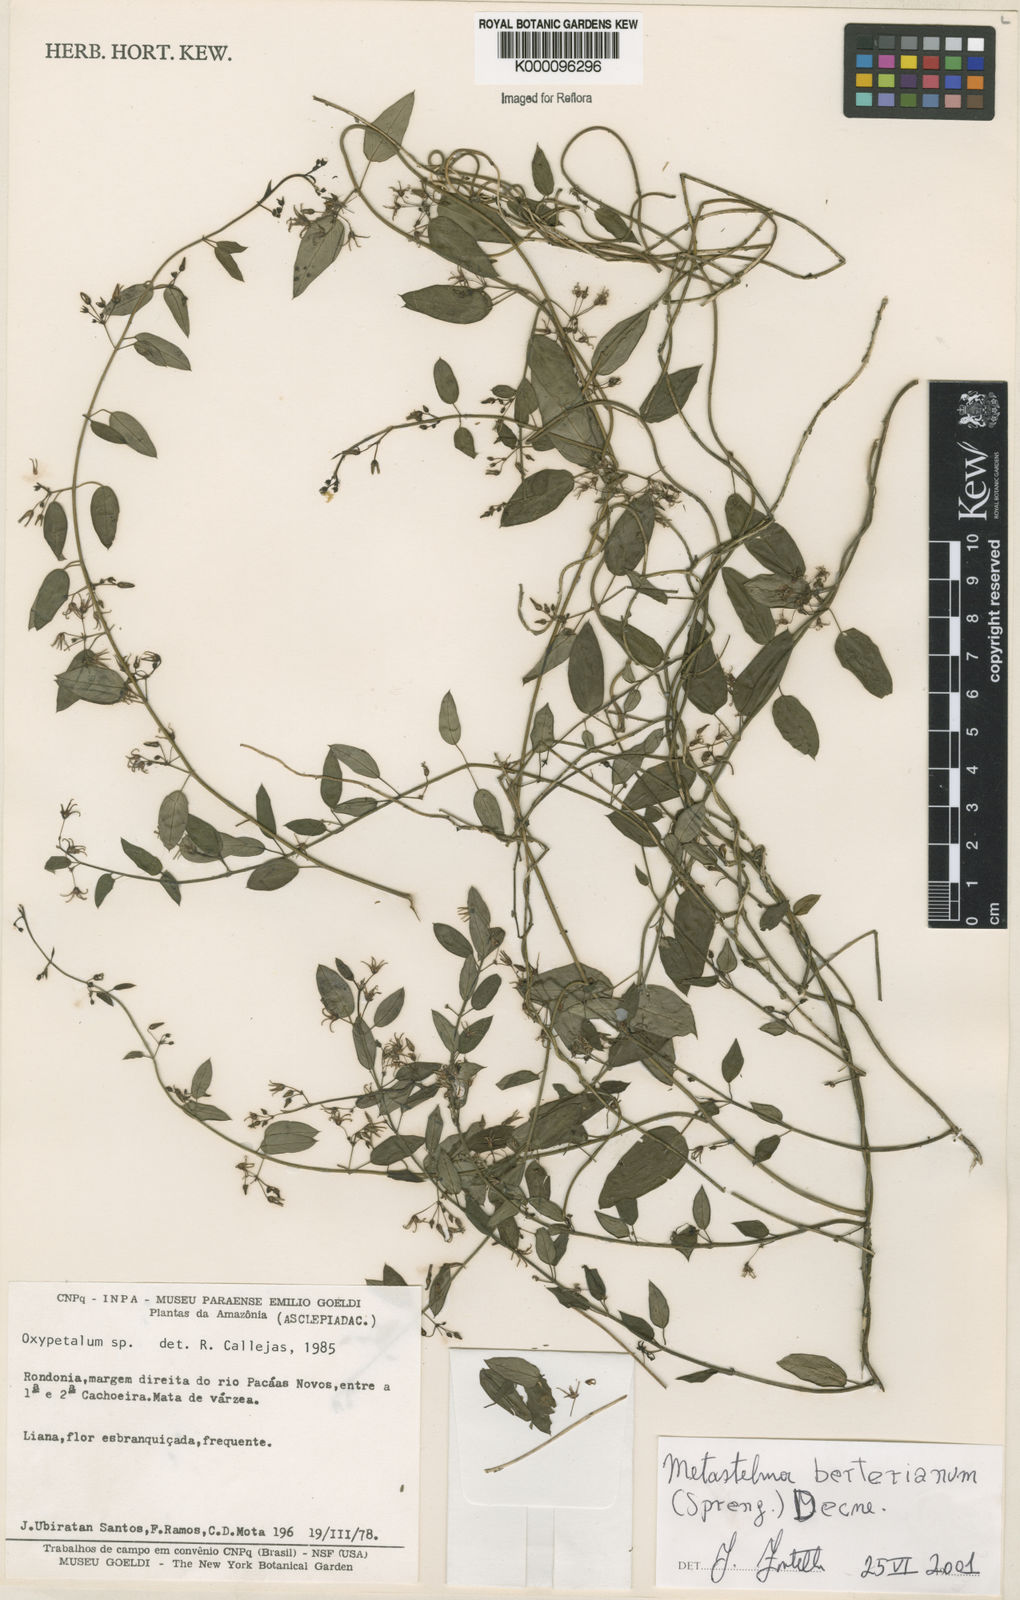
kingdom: Plantae
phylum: Tracheophyta
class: Magnoliopsida
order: Gentianales
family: Apocynaceae
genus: Tassadia
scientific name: Tassadia
